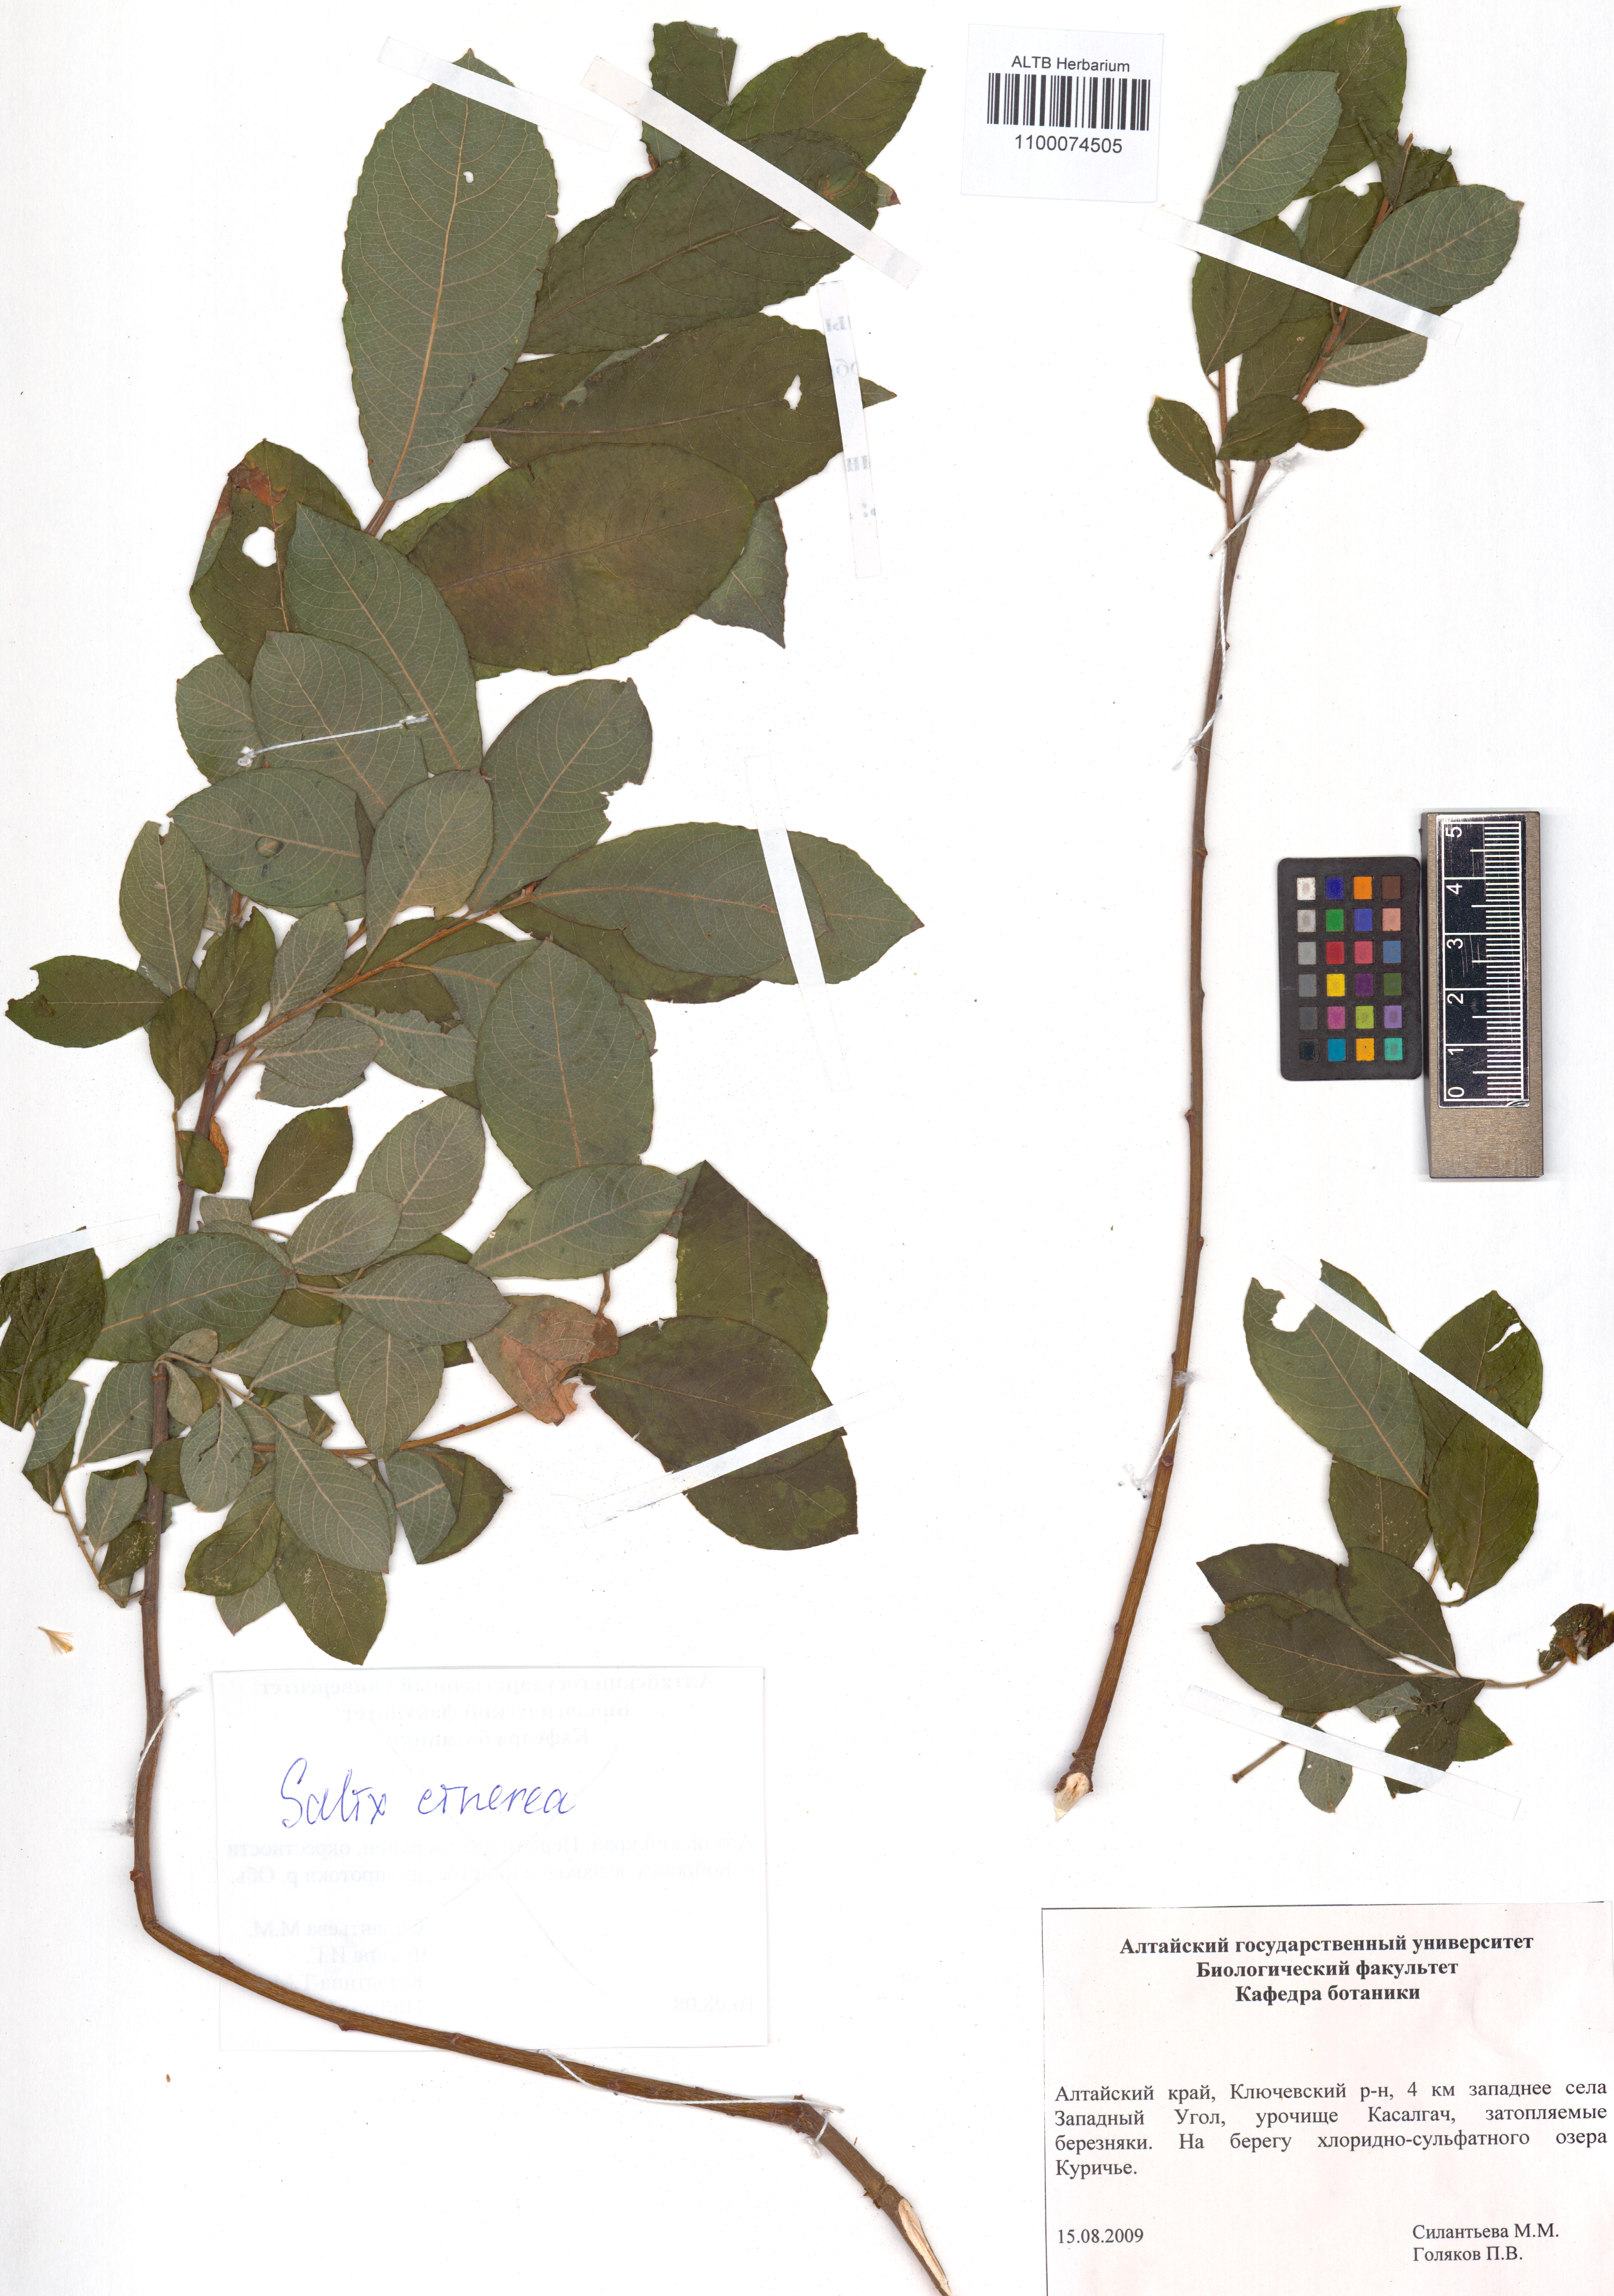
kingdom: Plantae
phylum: Tracheophyta
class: Magnoliopsida
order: Malpighiales
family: Salicaceae
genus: Salix
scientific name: Salix cinerea
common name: Common sallow
